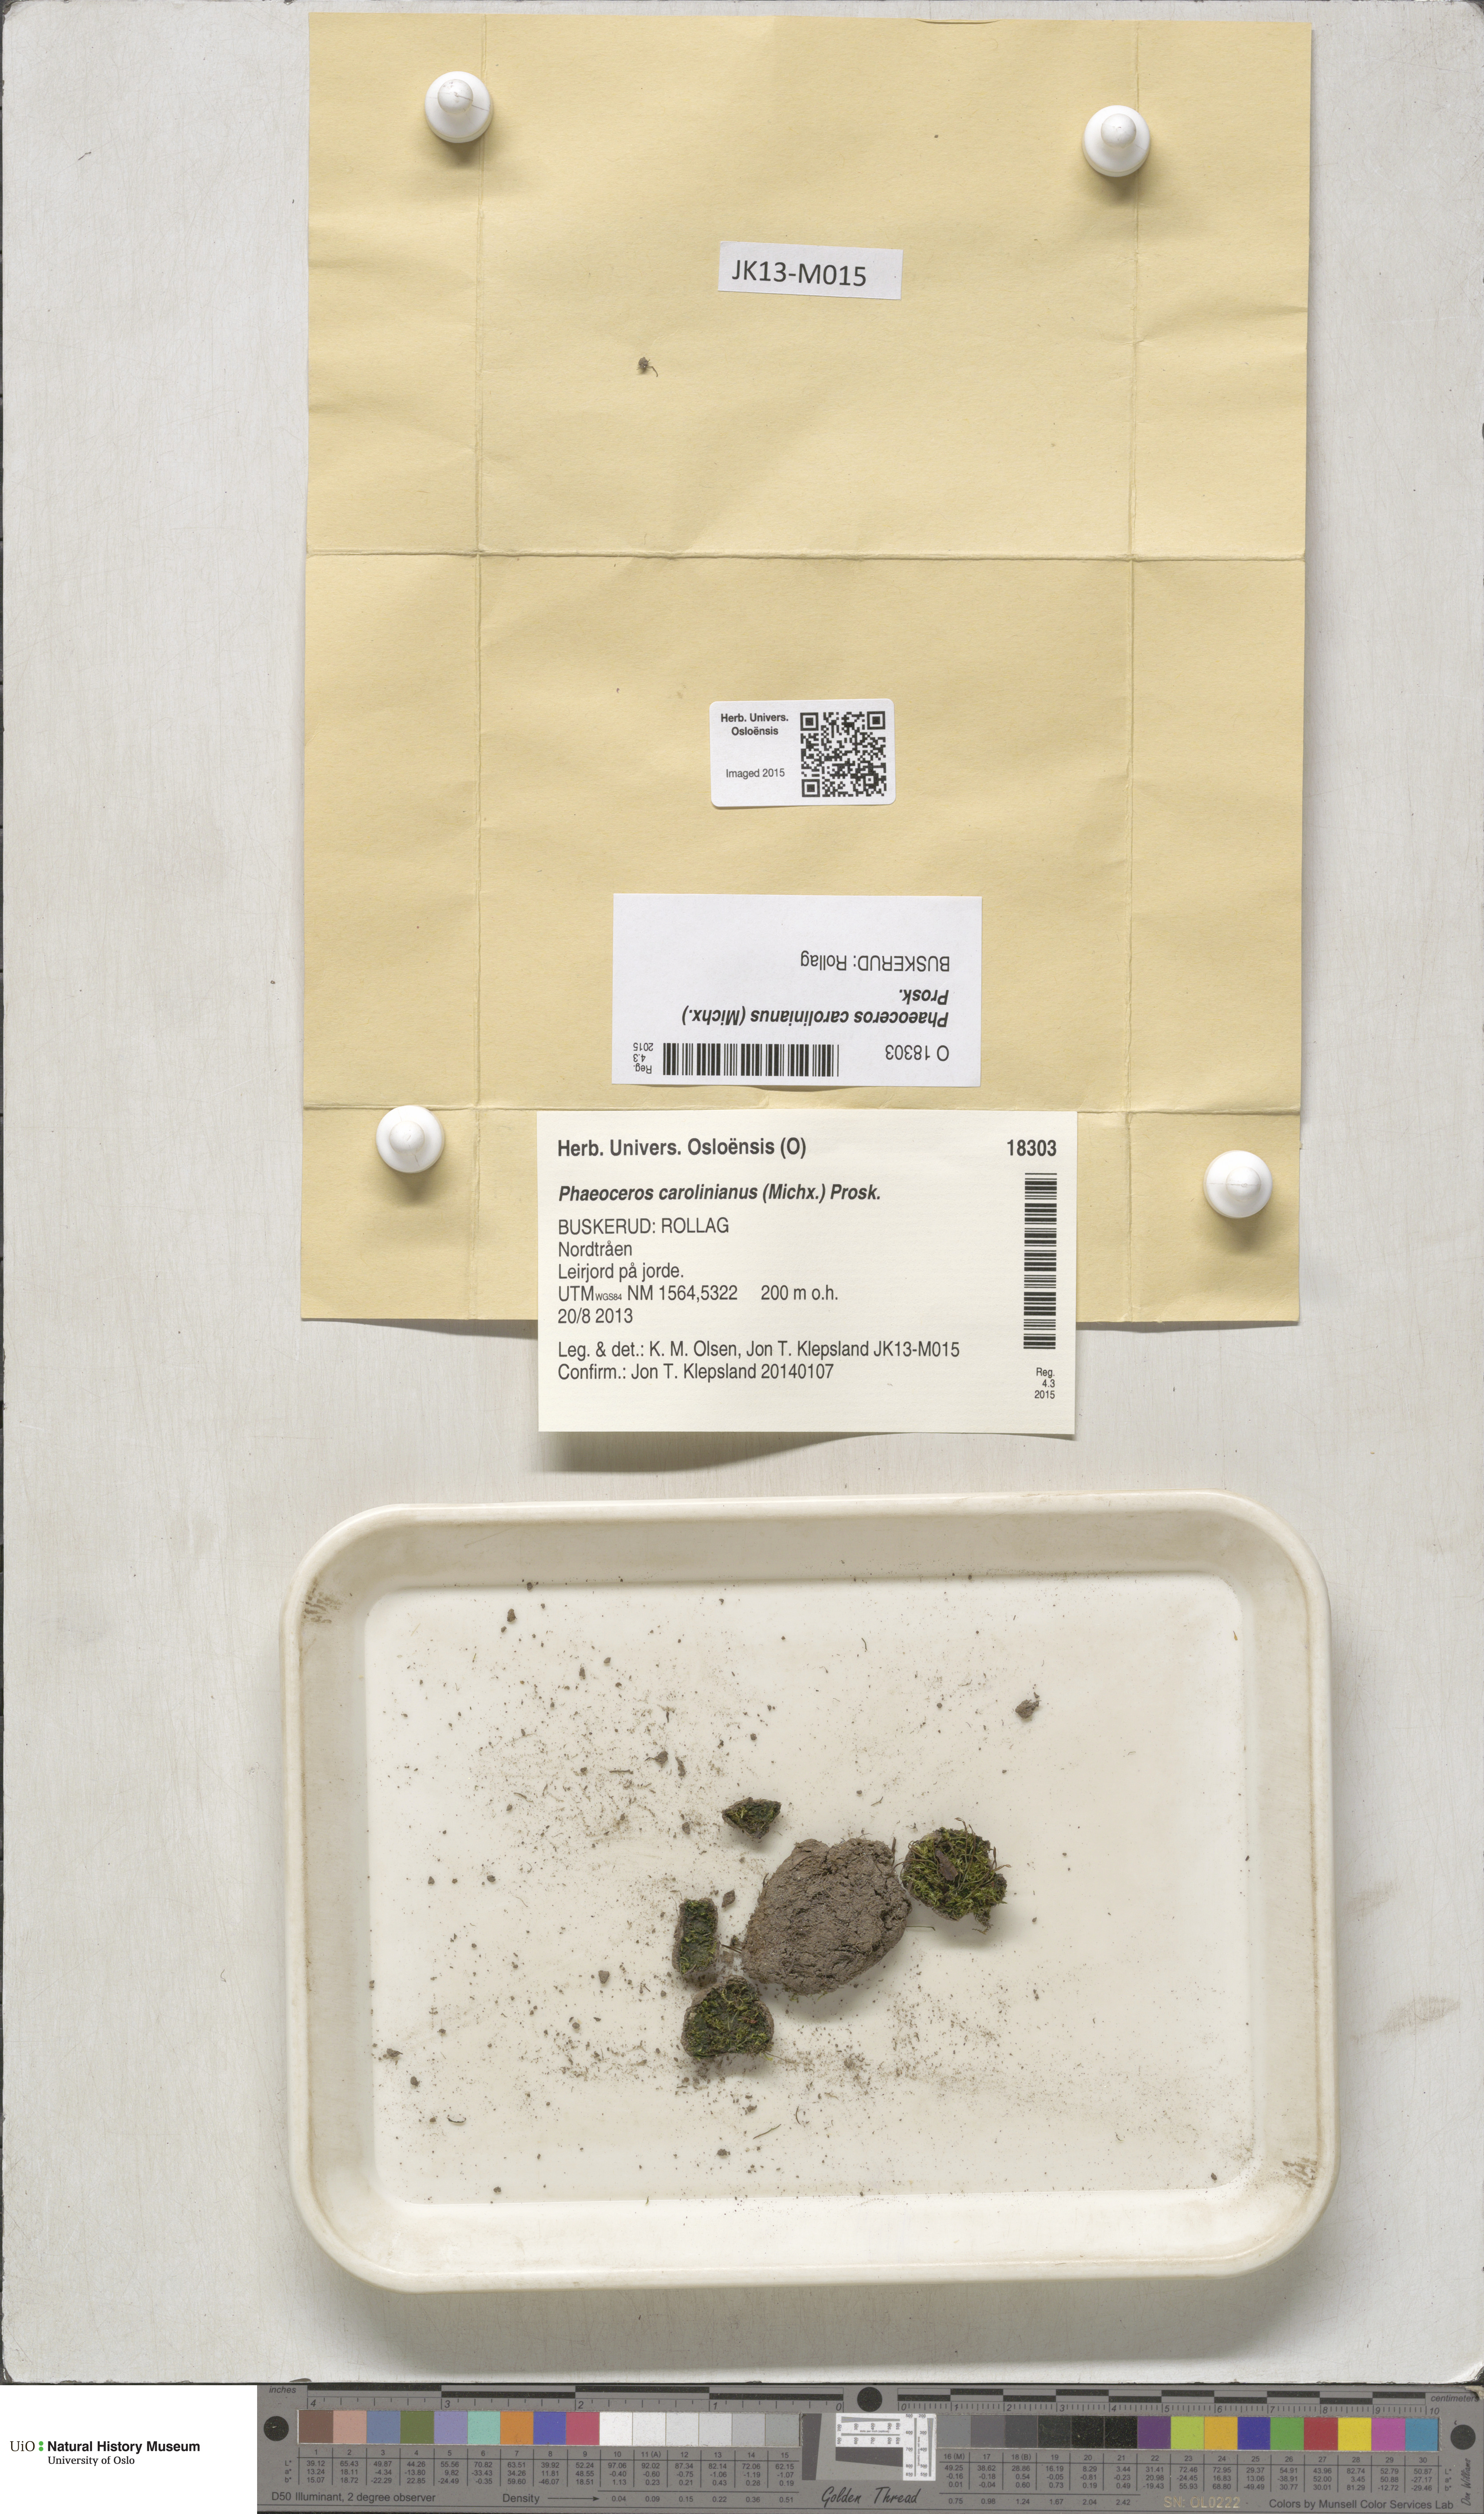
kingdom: Plantae
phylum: Anthocerotophyta
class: Anthocerotopsida
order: Notothyladales
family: Notothyladaceae
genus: Phaeoceros
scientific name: Phaeoceros carolinianus
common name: Carolina hornwort
